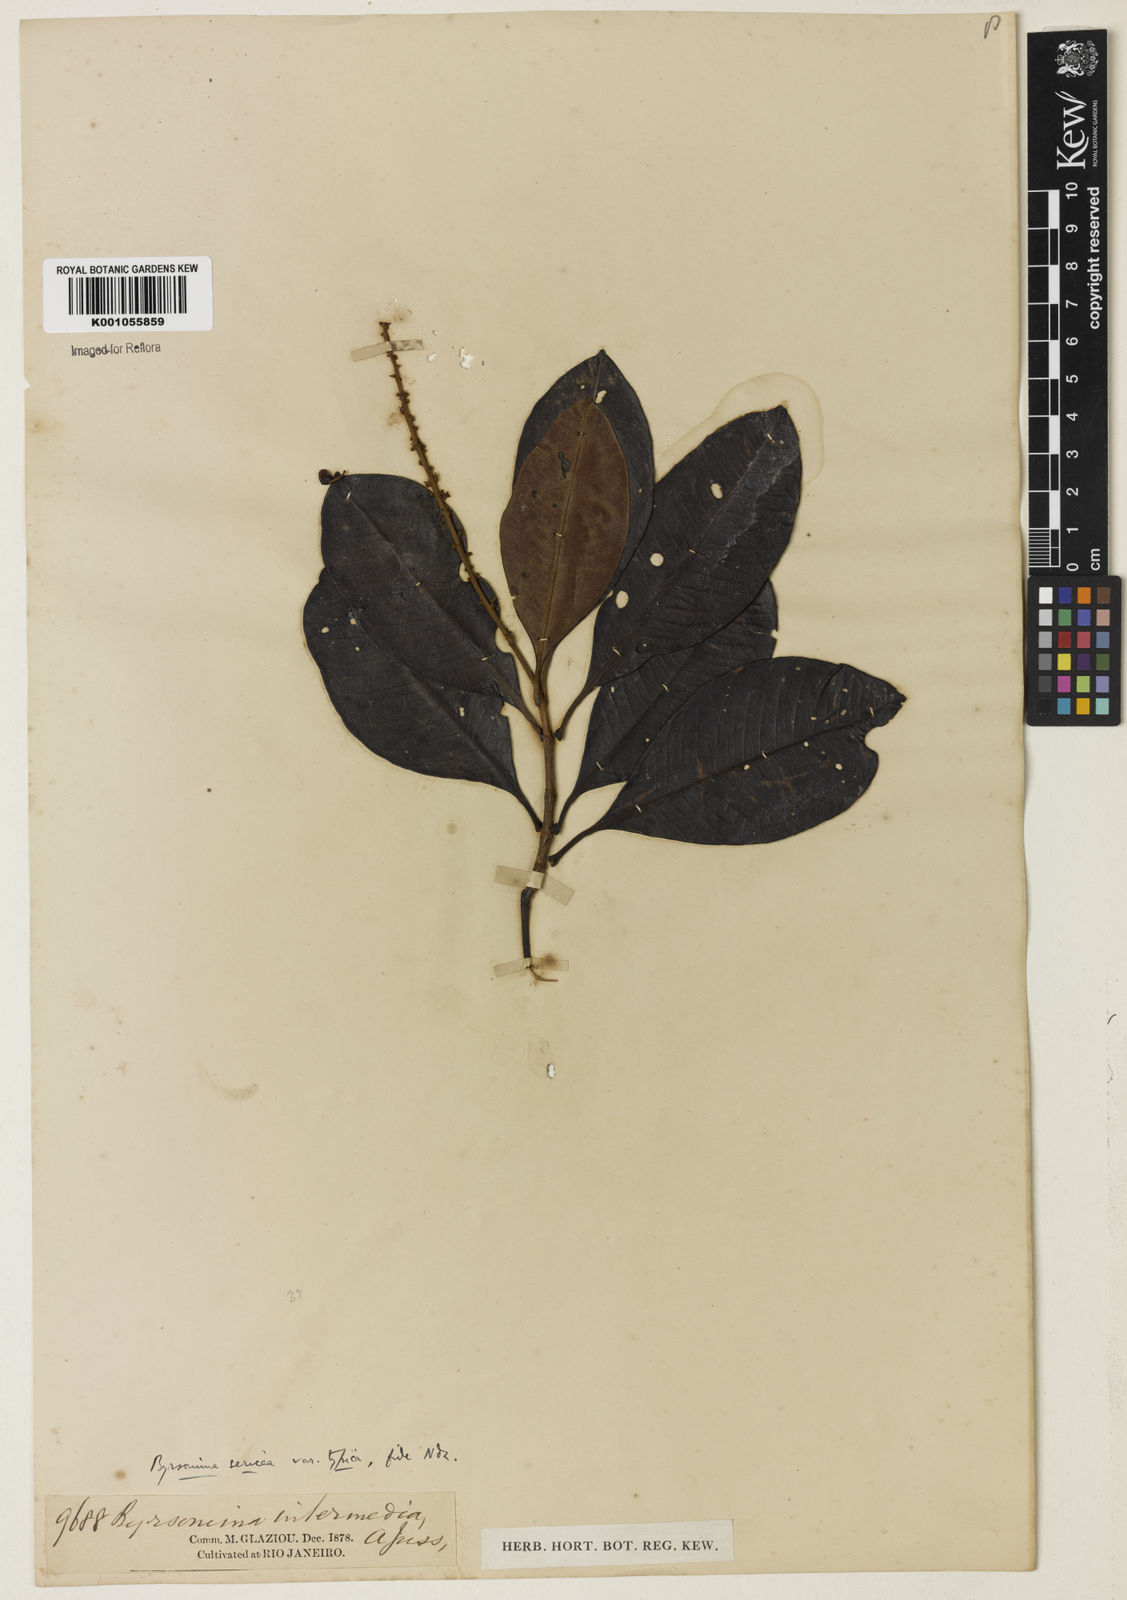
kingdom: Plantae
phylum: Tracheophyta
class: Magnoliopsida
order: Malpighiales
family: Malpighiaceae
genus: Byrsonima
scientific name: Byrsonima sericea
